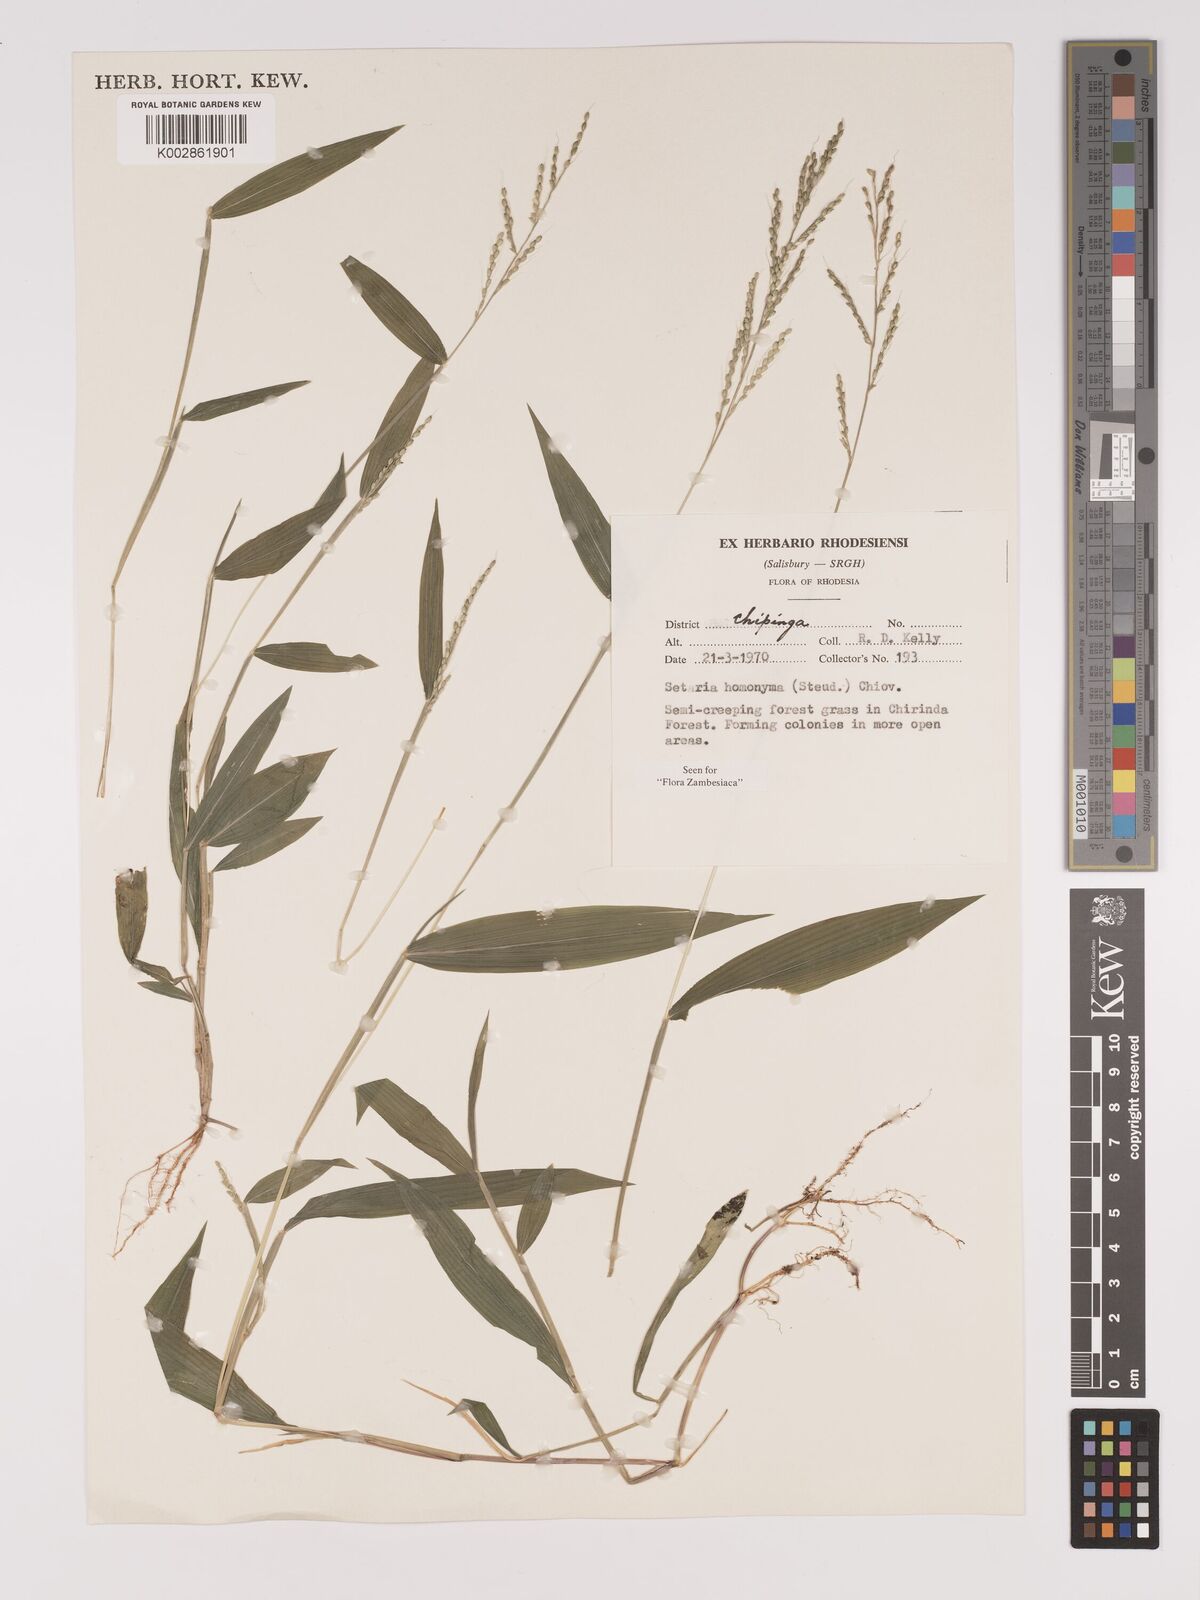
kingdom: Plantae
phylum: Tracheophyta
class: Liliopsida
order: Poales
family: Poaceae
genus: Setaria
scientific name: Setaria homonyma
